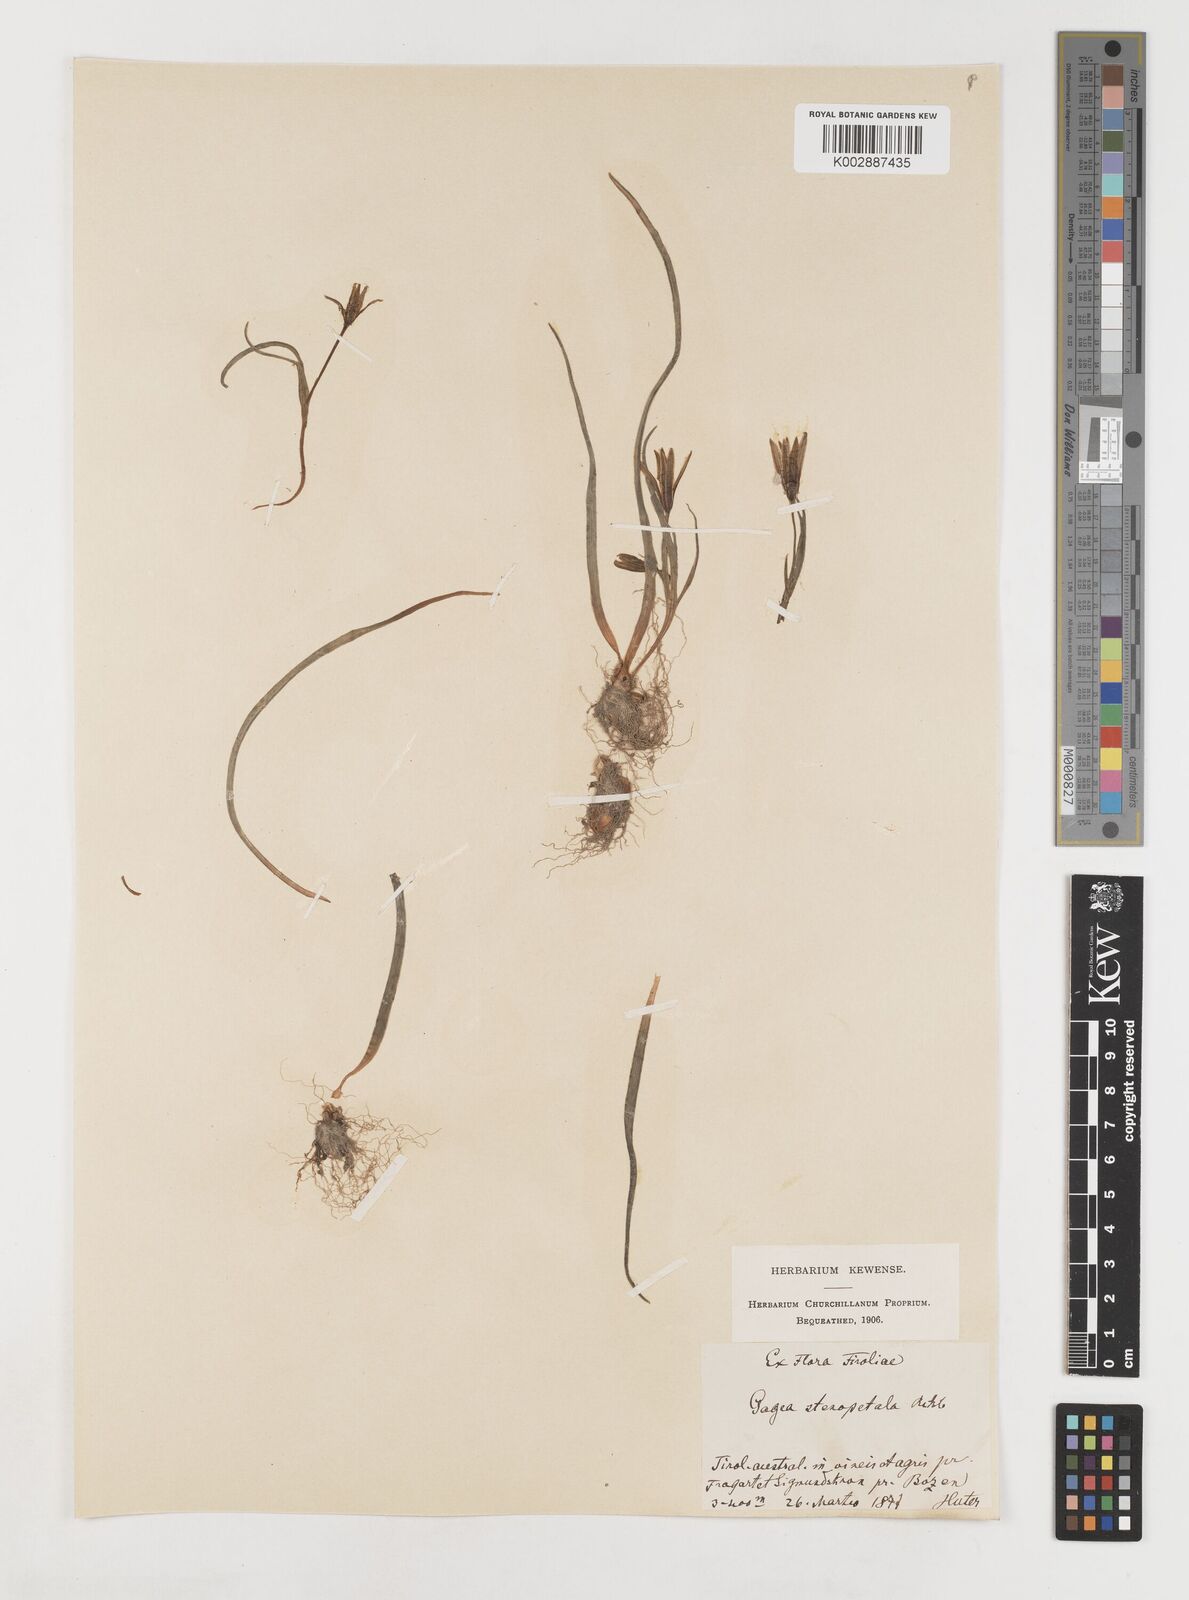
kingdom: Plantae
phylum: Tracheophyta
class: Liliopsida
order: Liliales
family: Liliaceae
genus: Gagea
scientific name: Gagea pratensis
